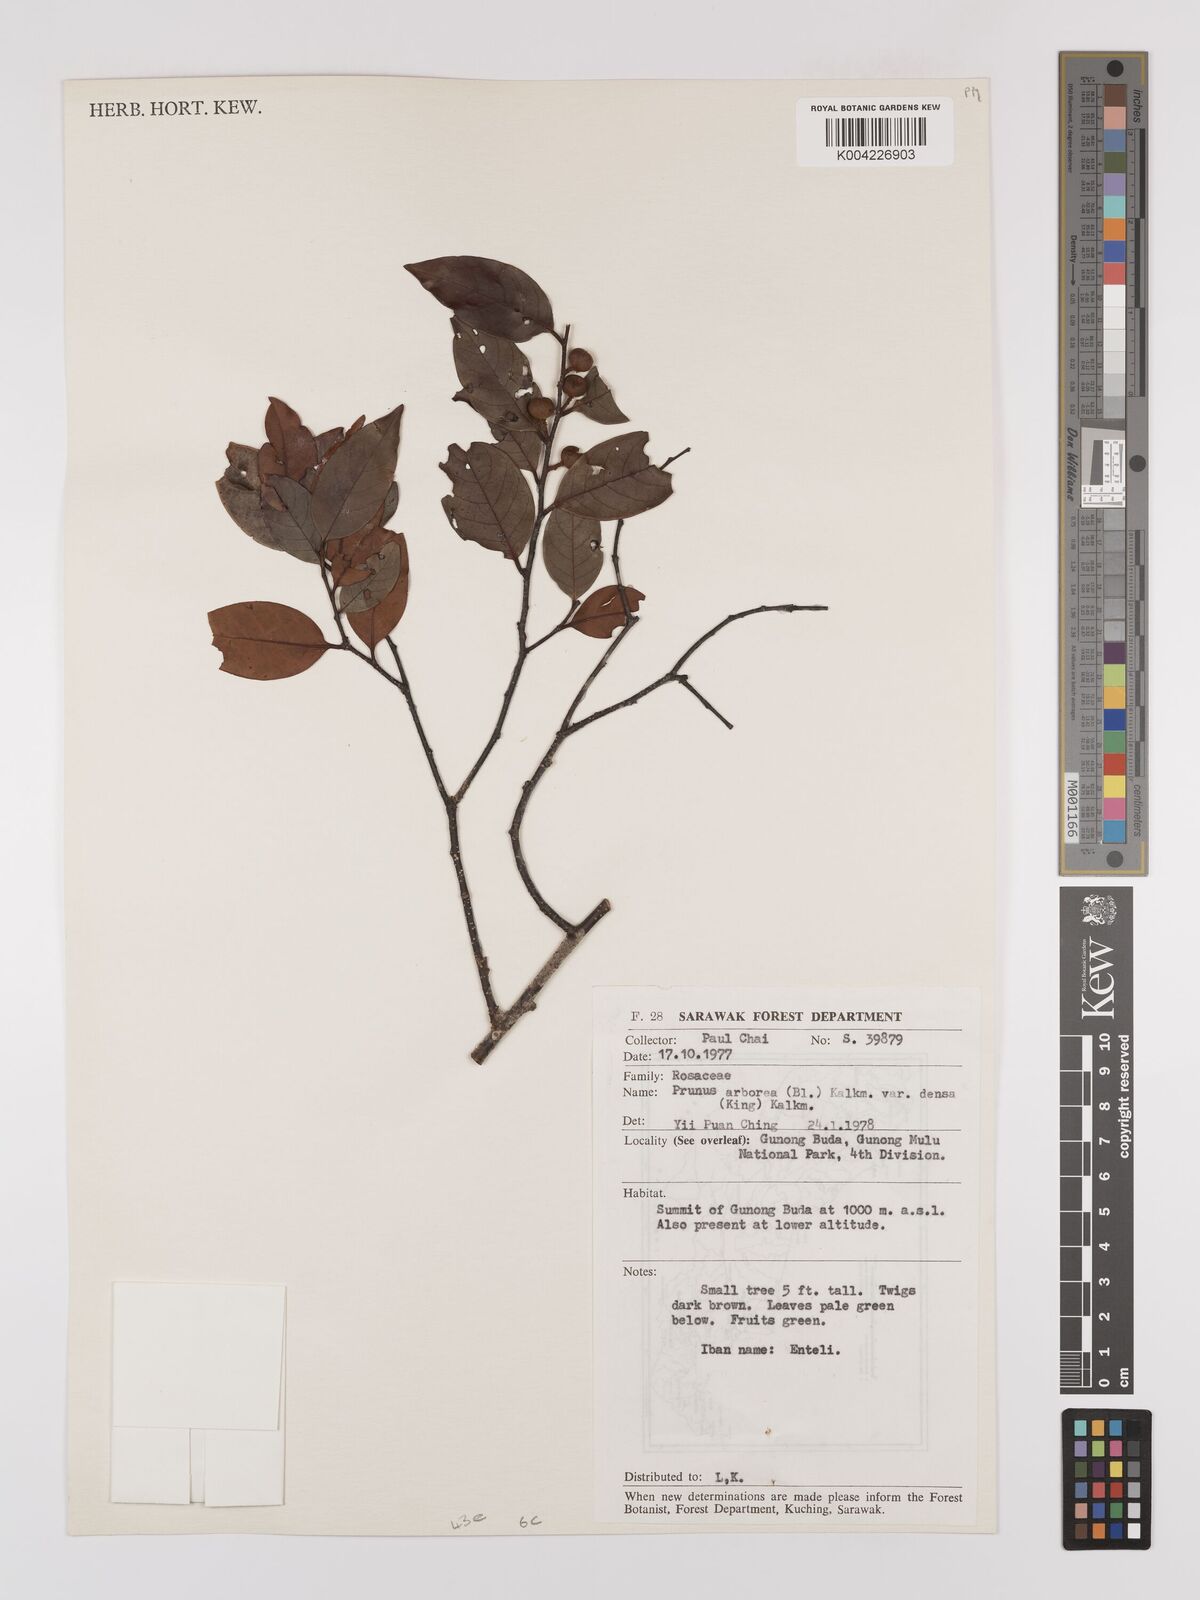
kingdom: Plantae
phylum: Tracheophyta
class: Magnoliopsida
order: Rosales
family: Rosaceae
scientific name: Rosaceae
